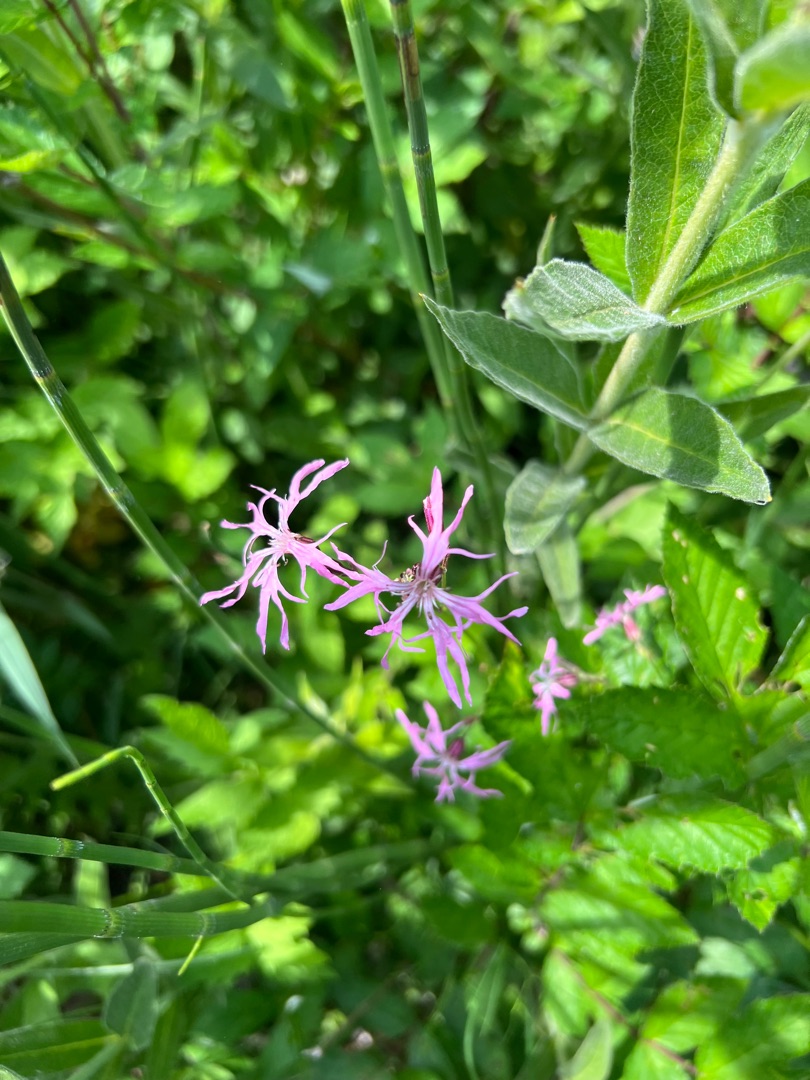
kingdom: Plantae
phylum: Tracheophyta
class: Magnoliopsida
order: Caryophyllales
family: Caryophyllaceae
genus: Silene
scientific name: Silene flos-cuculi
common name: Trævlekrone
